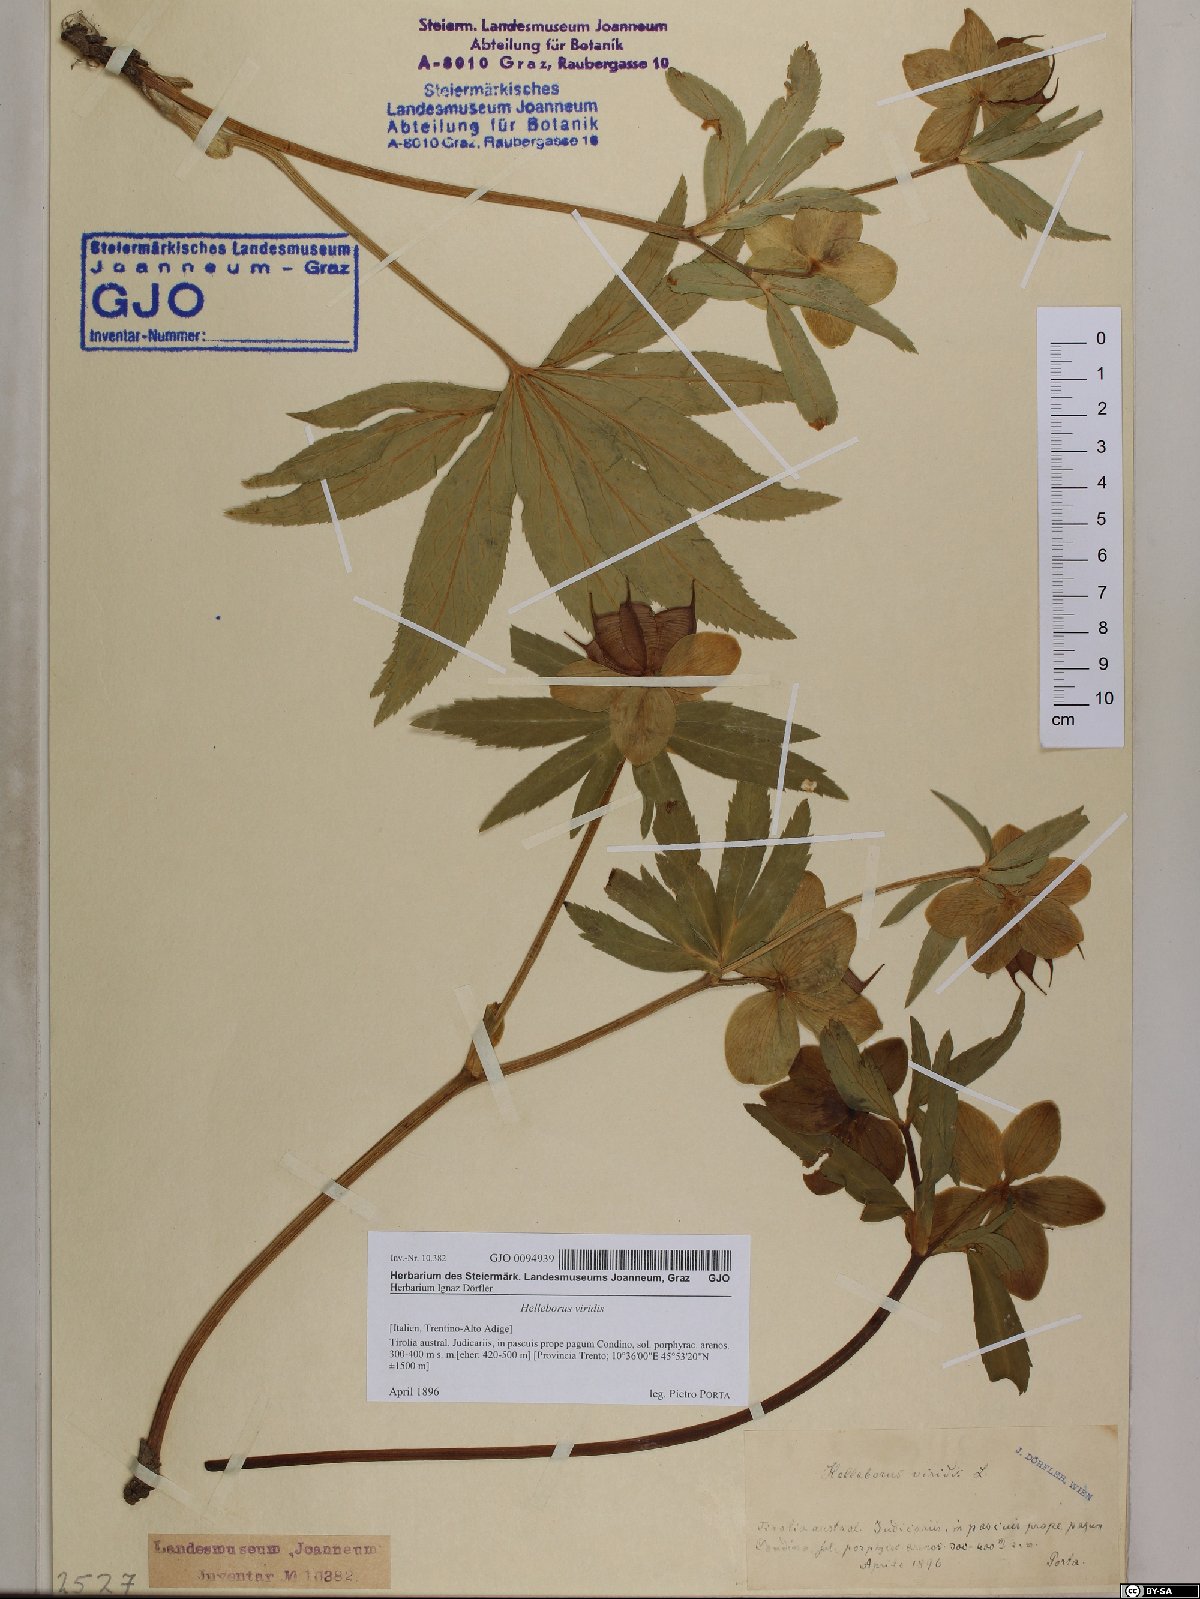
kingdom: Plantae
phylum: Tracheophyta
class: Magnoliopsida
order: Ranunculales
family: Ranunculaceae
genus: Helleborus
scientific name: Helleborus viridis
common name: Green hellebore
